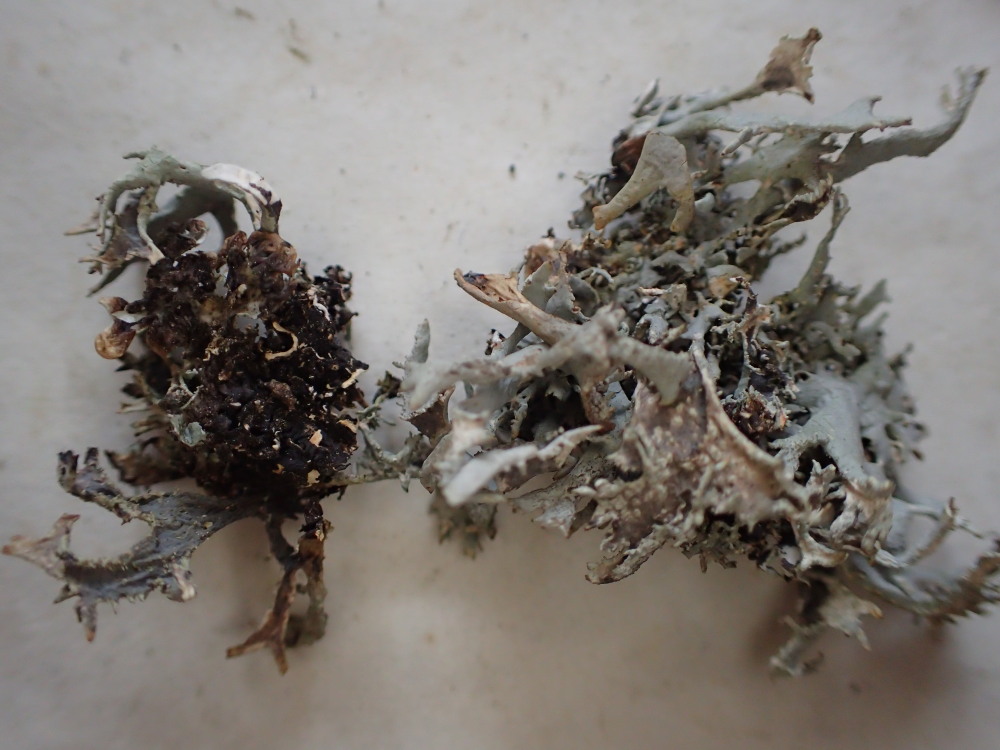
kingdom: Fungi
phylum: Ascomycota
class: Lecanoromycetes
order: Lecanorales
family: Parmeliaceae
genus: Pseudevernia
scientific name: Pseudevernia furfuracea
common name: grå fyrrelav
